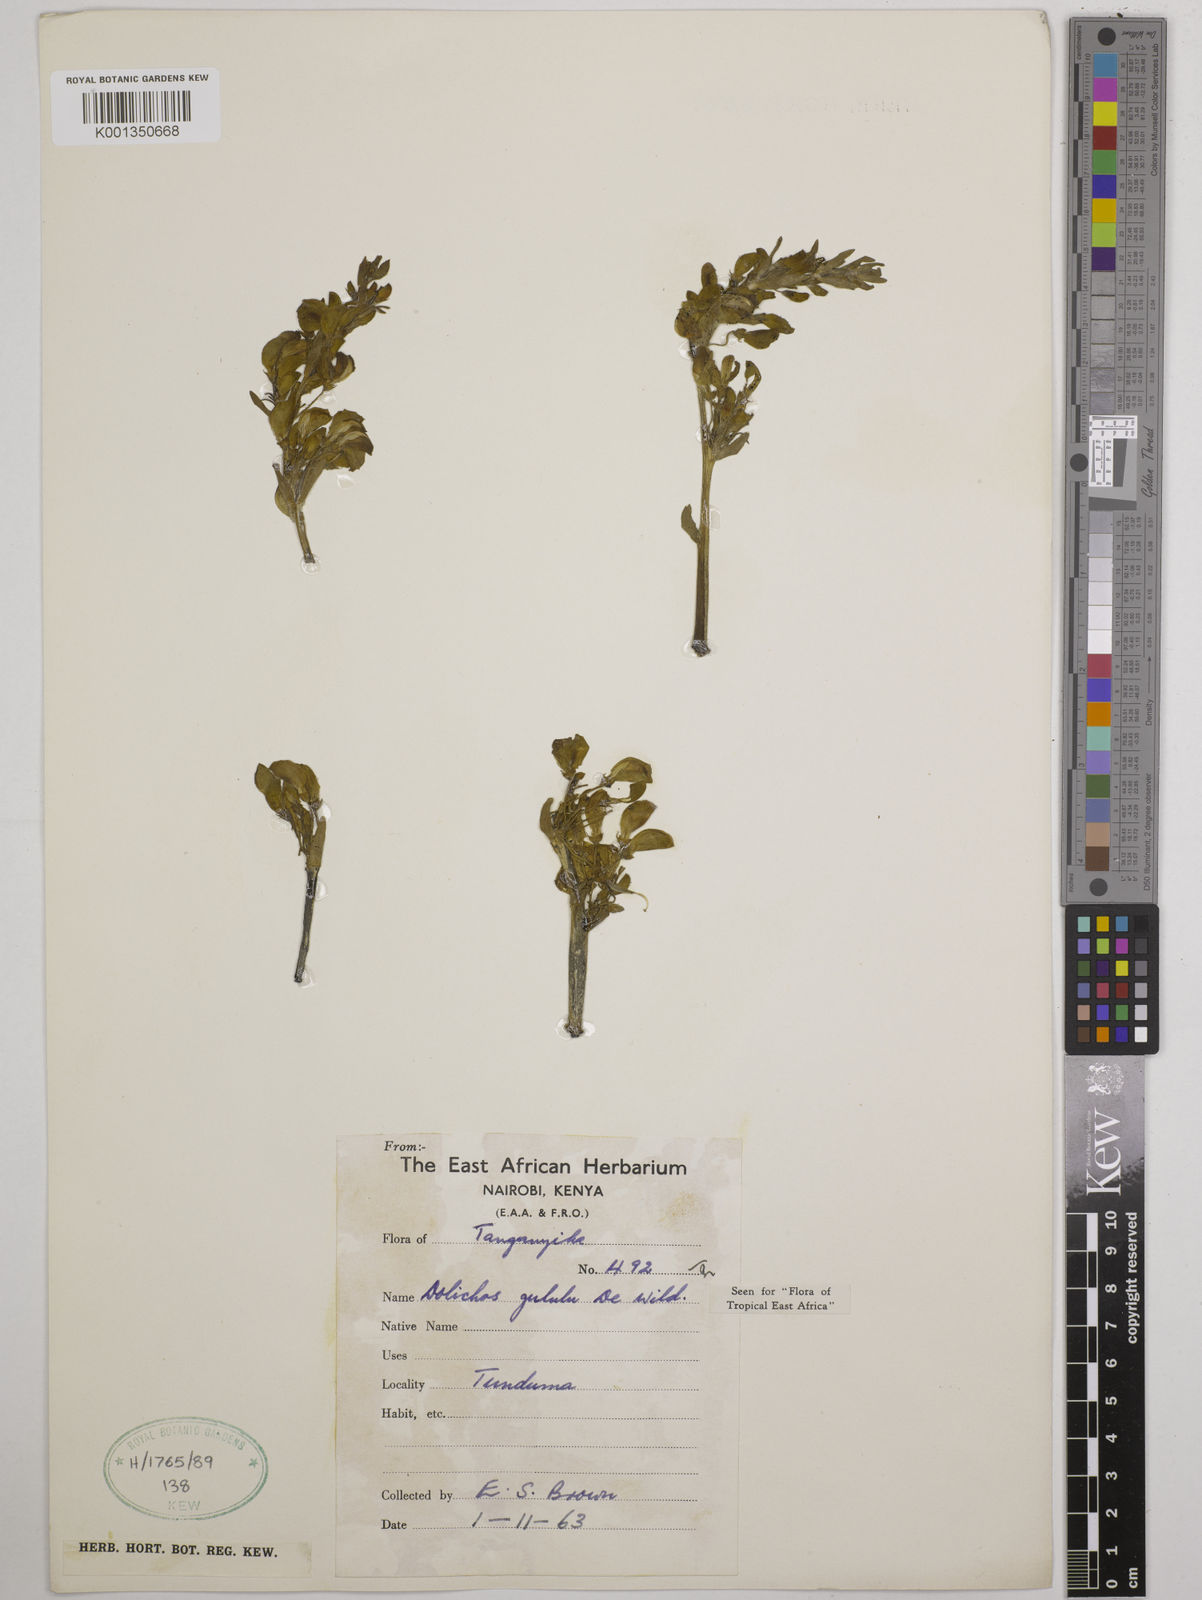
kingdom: Plantae
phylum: Tracheophyta
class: Magnoliopsida
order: Fabales
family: Fabaceae
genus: Dolichos
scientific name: Dolichos gululu
